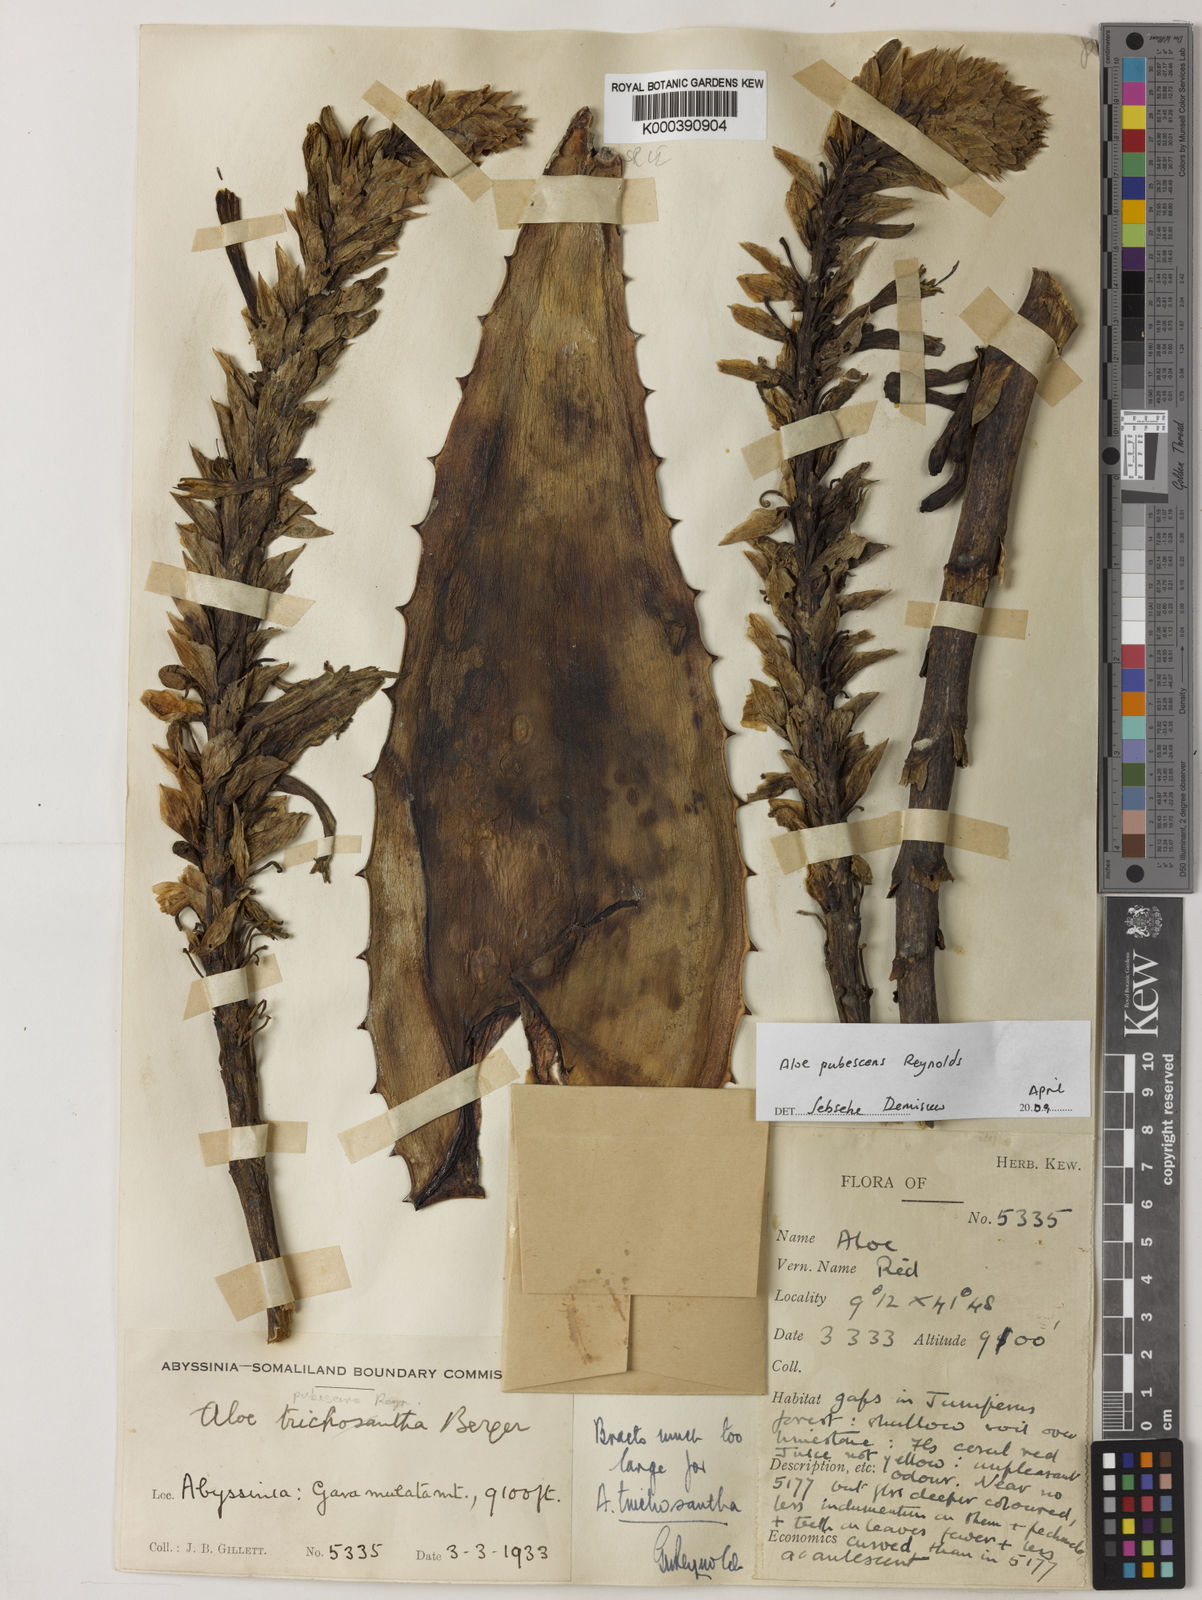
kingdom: Plantae
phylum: Tracheophyta
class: Liliopsida
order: Asparagales
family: Asphodelaceae
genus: Aloe
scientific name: Aloe pubescens
